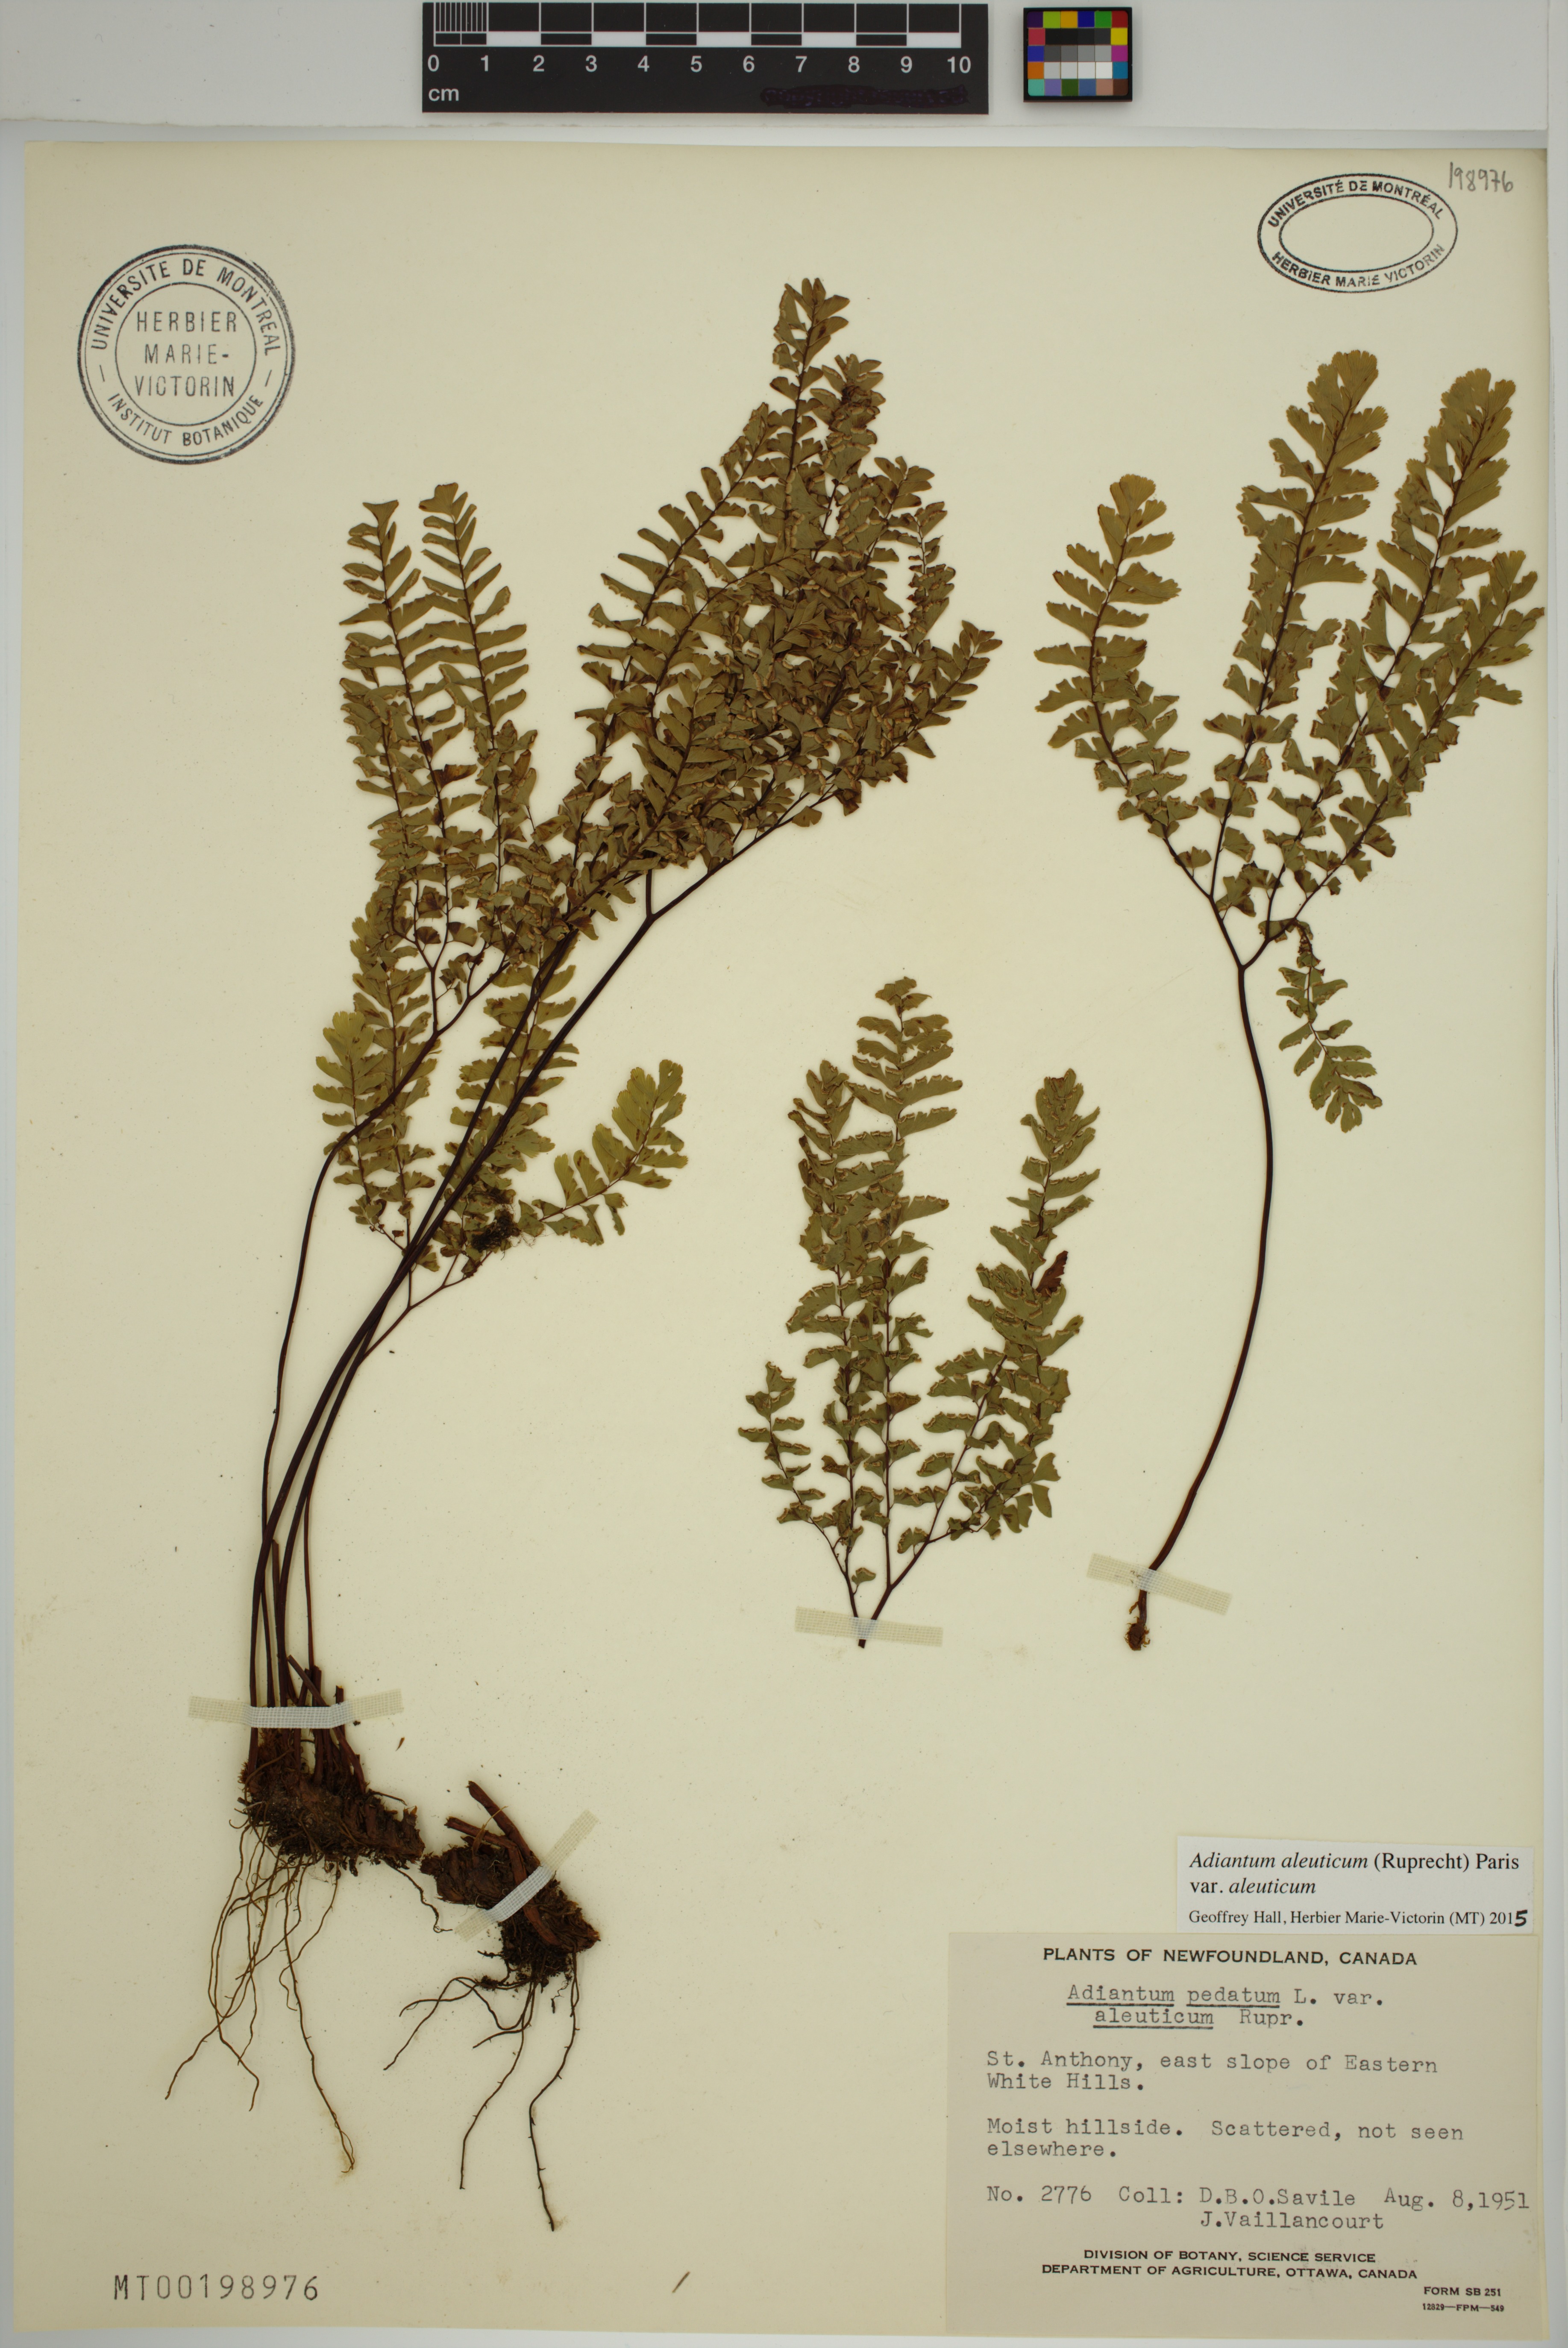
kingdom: Plantae
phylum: Tracheophyta
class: Polypodiopsida
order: Polypodiales
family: Pteridaceae
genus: Adiantum
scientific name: Adiantum aleuticum
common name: Aleutian maidenhair fern
